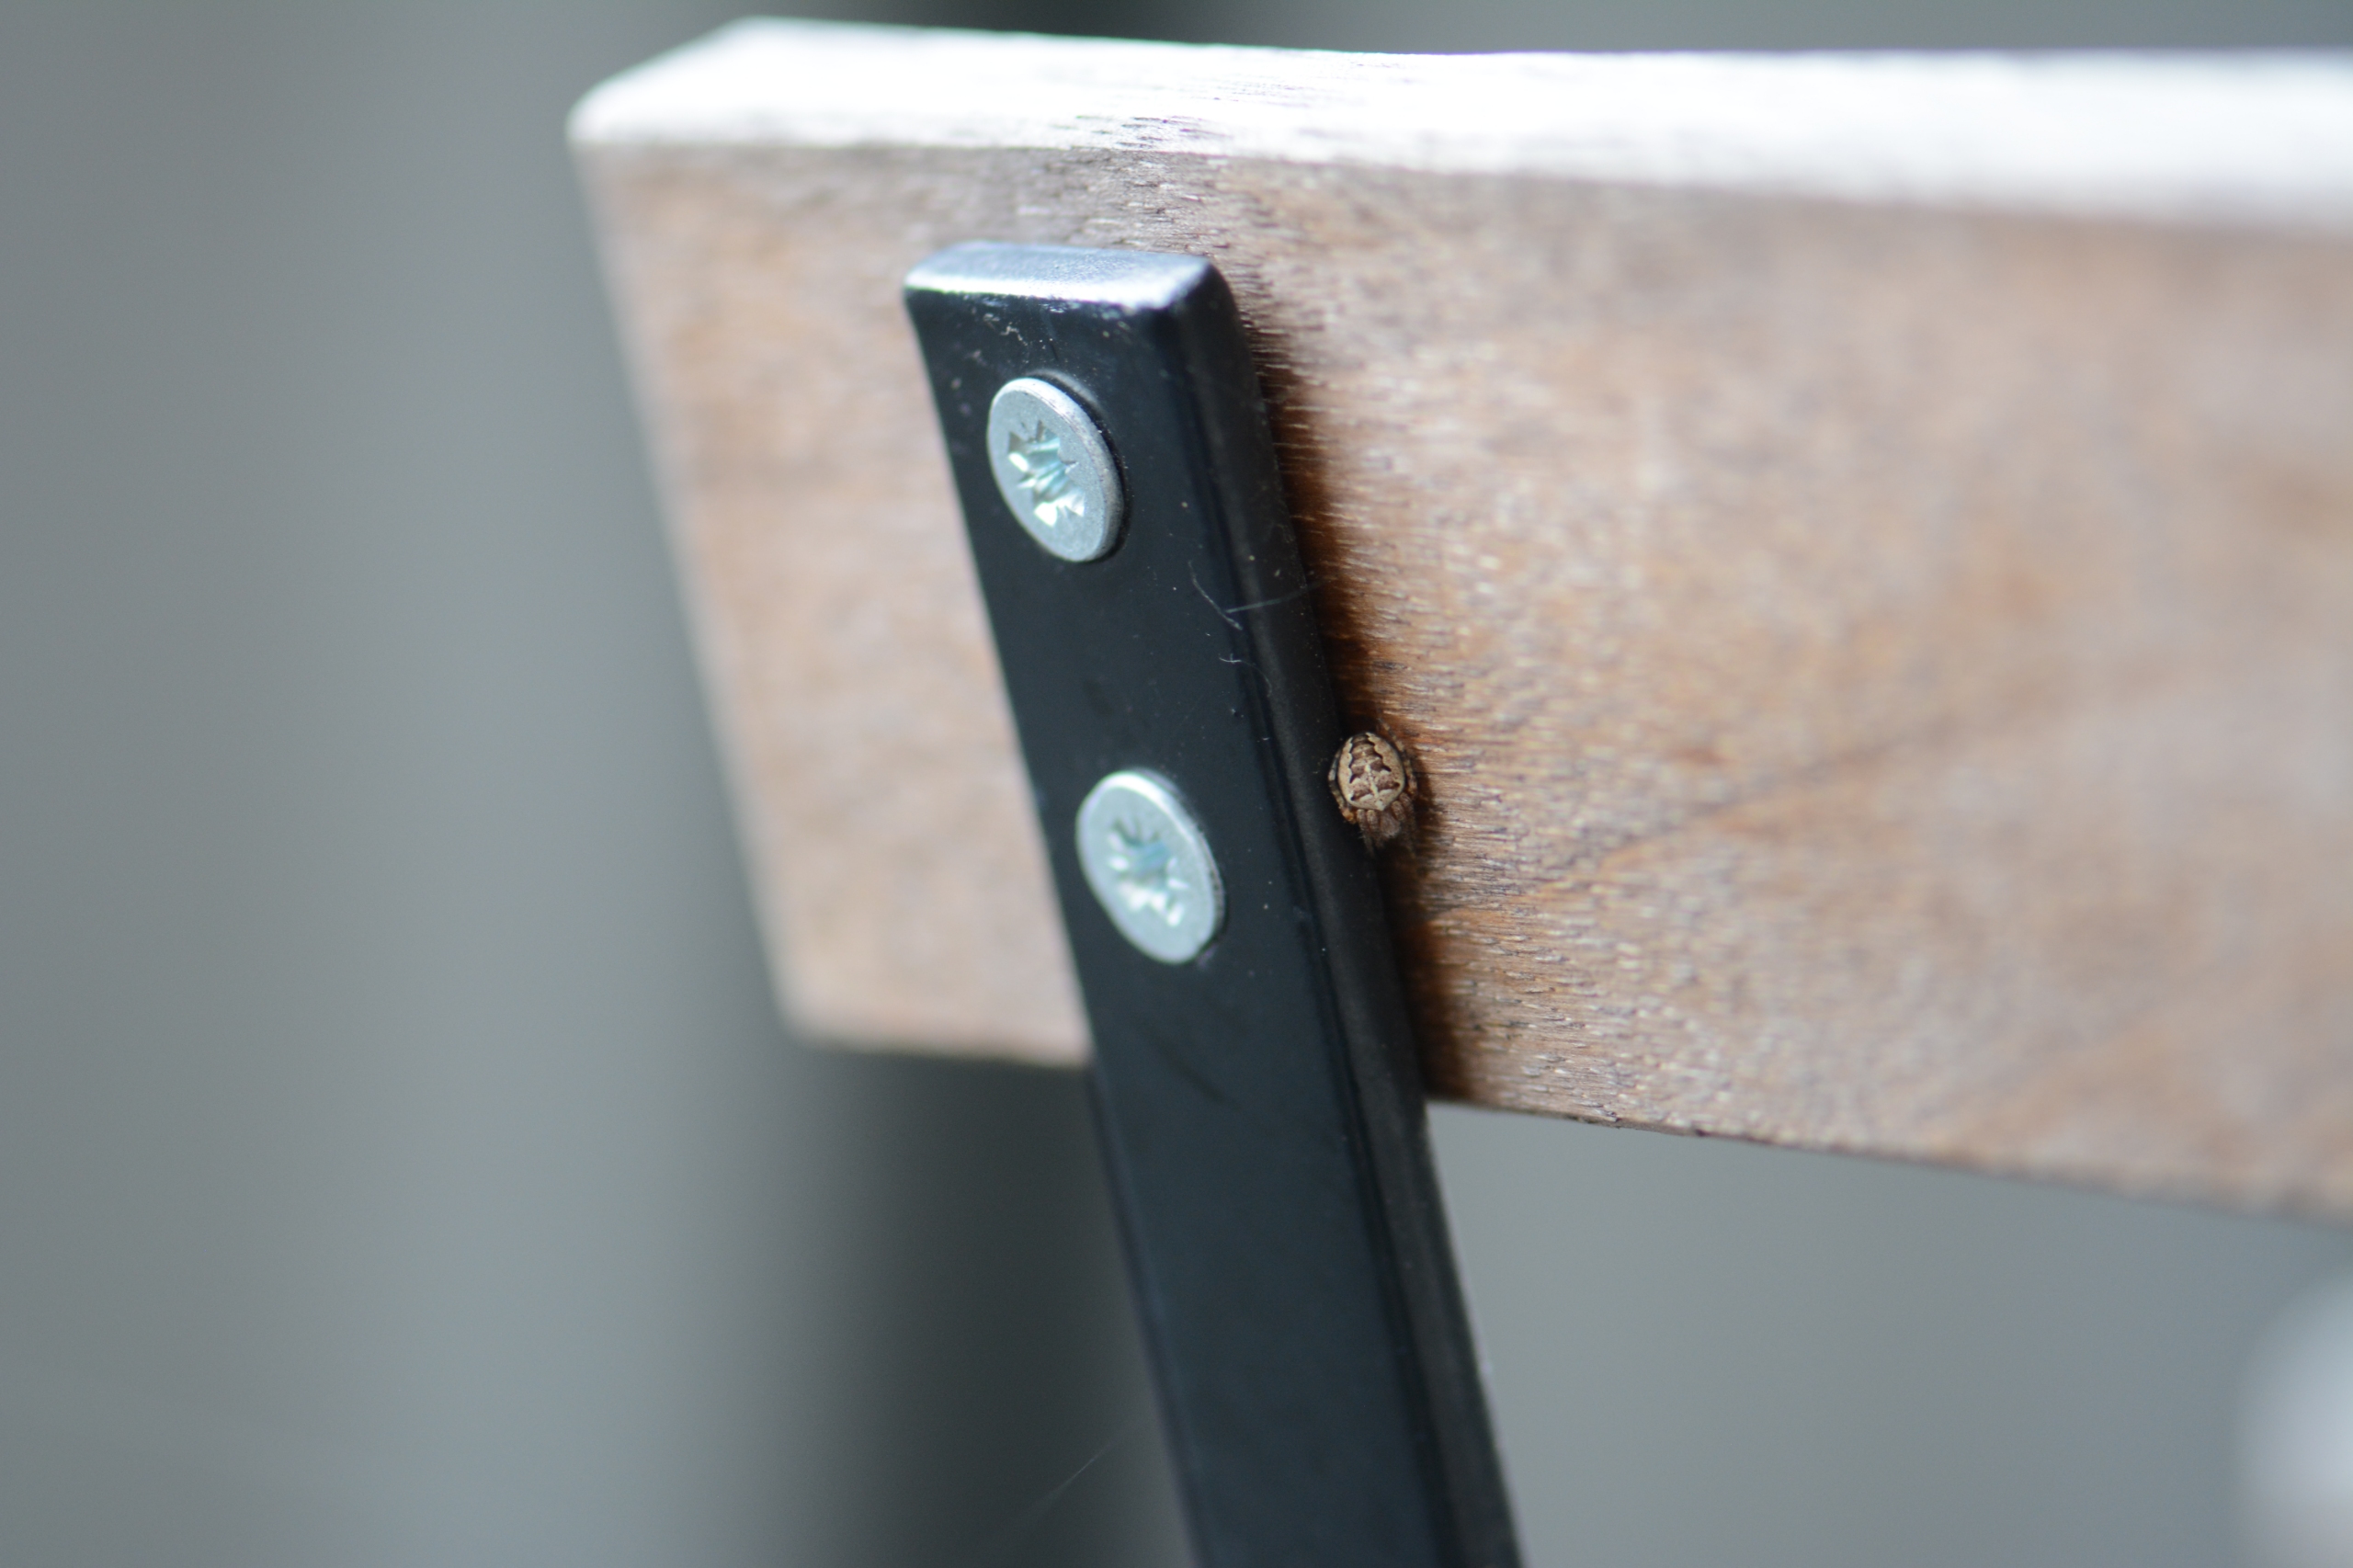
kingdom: Animalia
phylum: Arthropoda
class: Arachnida
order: Araneae
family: Araneidae
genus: Araneus
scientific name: Araneus diadematus
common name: Korsedderkop
